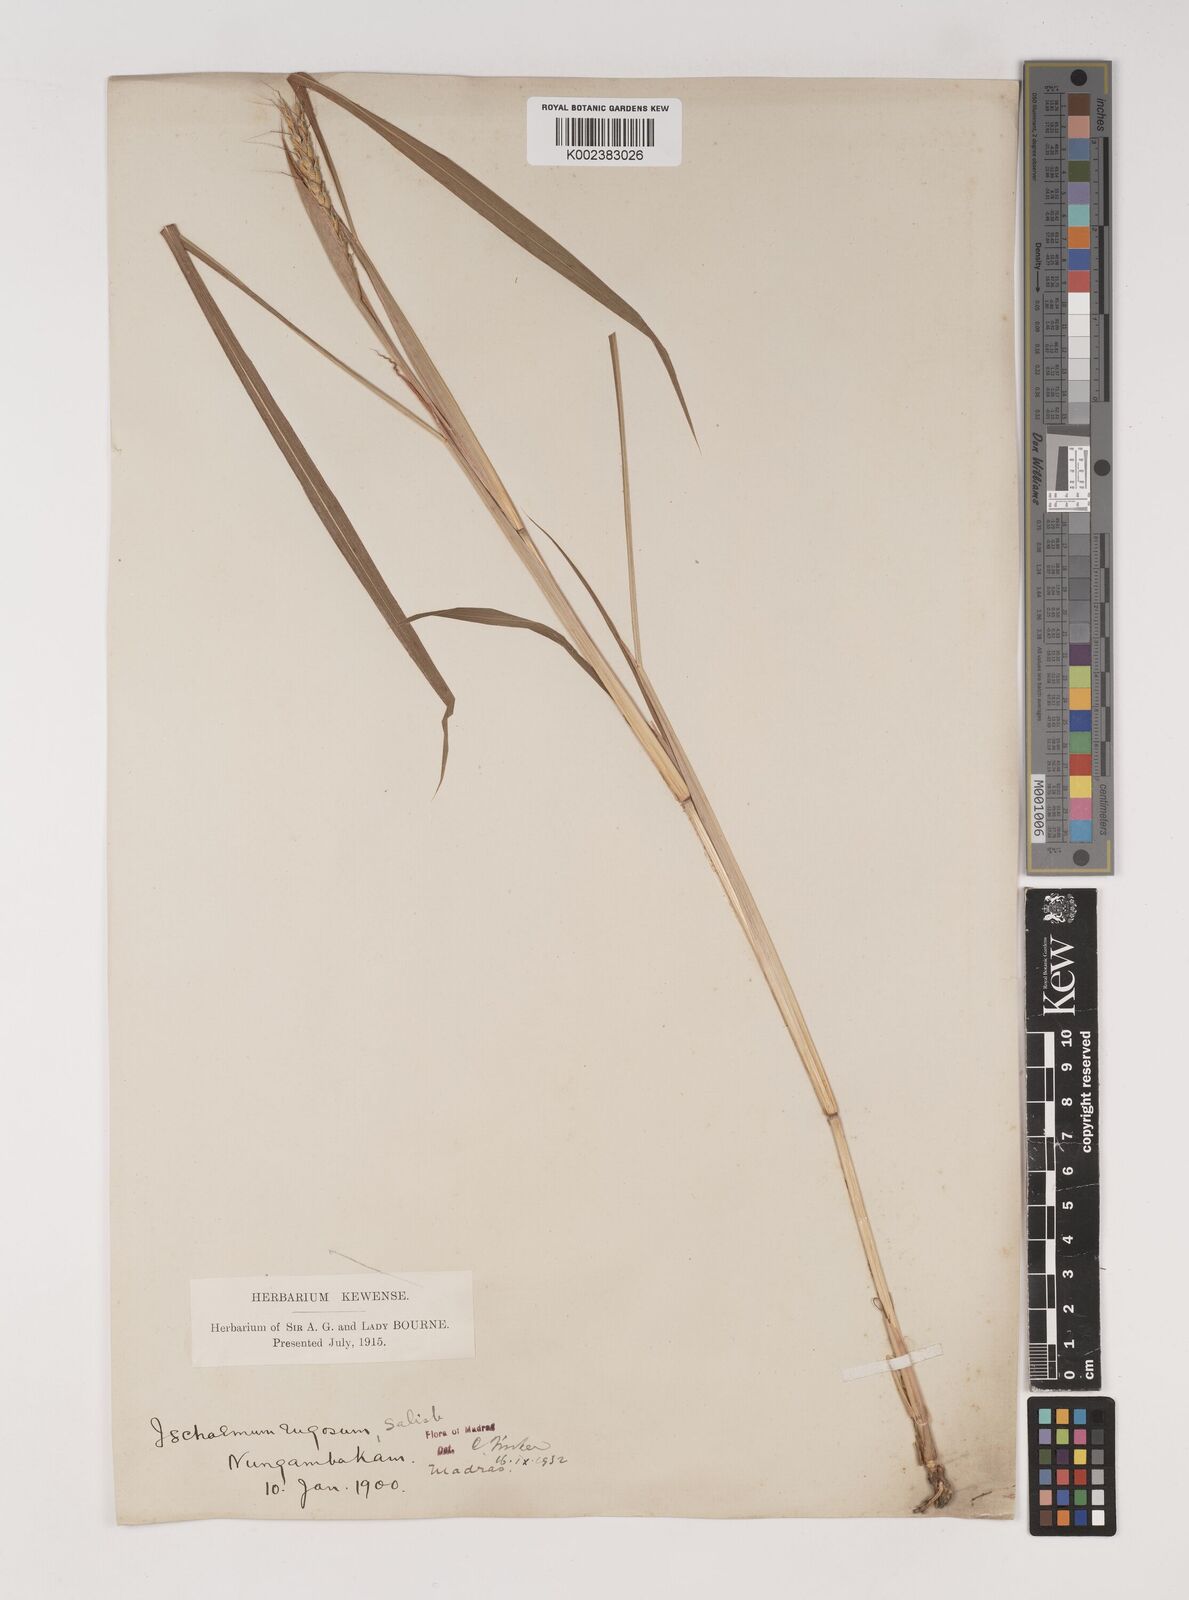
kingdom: Plantae
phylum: Tracheophyta
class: Liliopsida
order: Poales
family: Poaceae
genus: Ischaemum
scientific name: Ischaemum rugosum
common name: Saramatta grass
